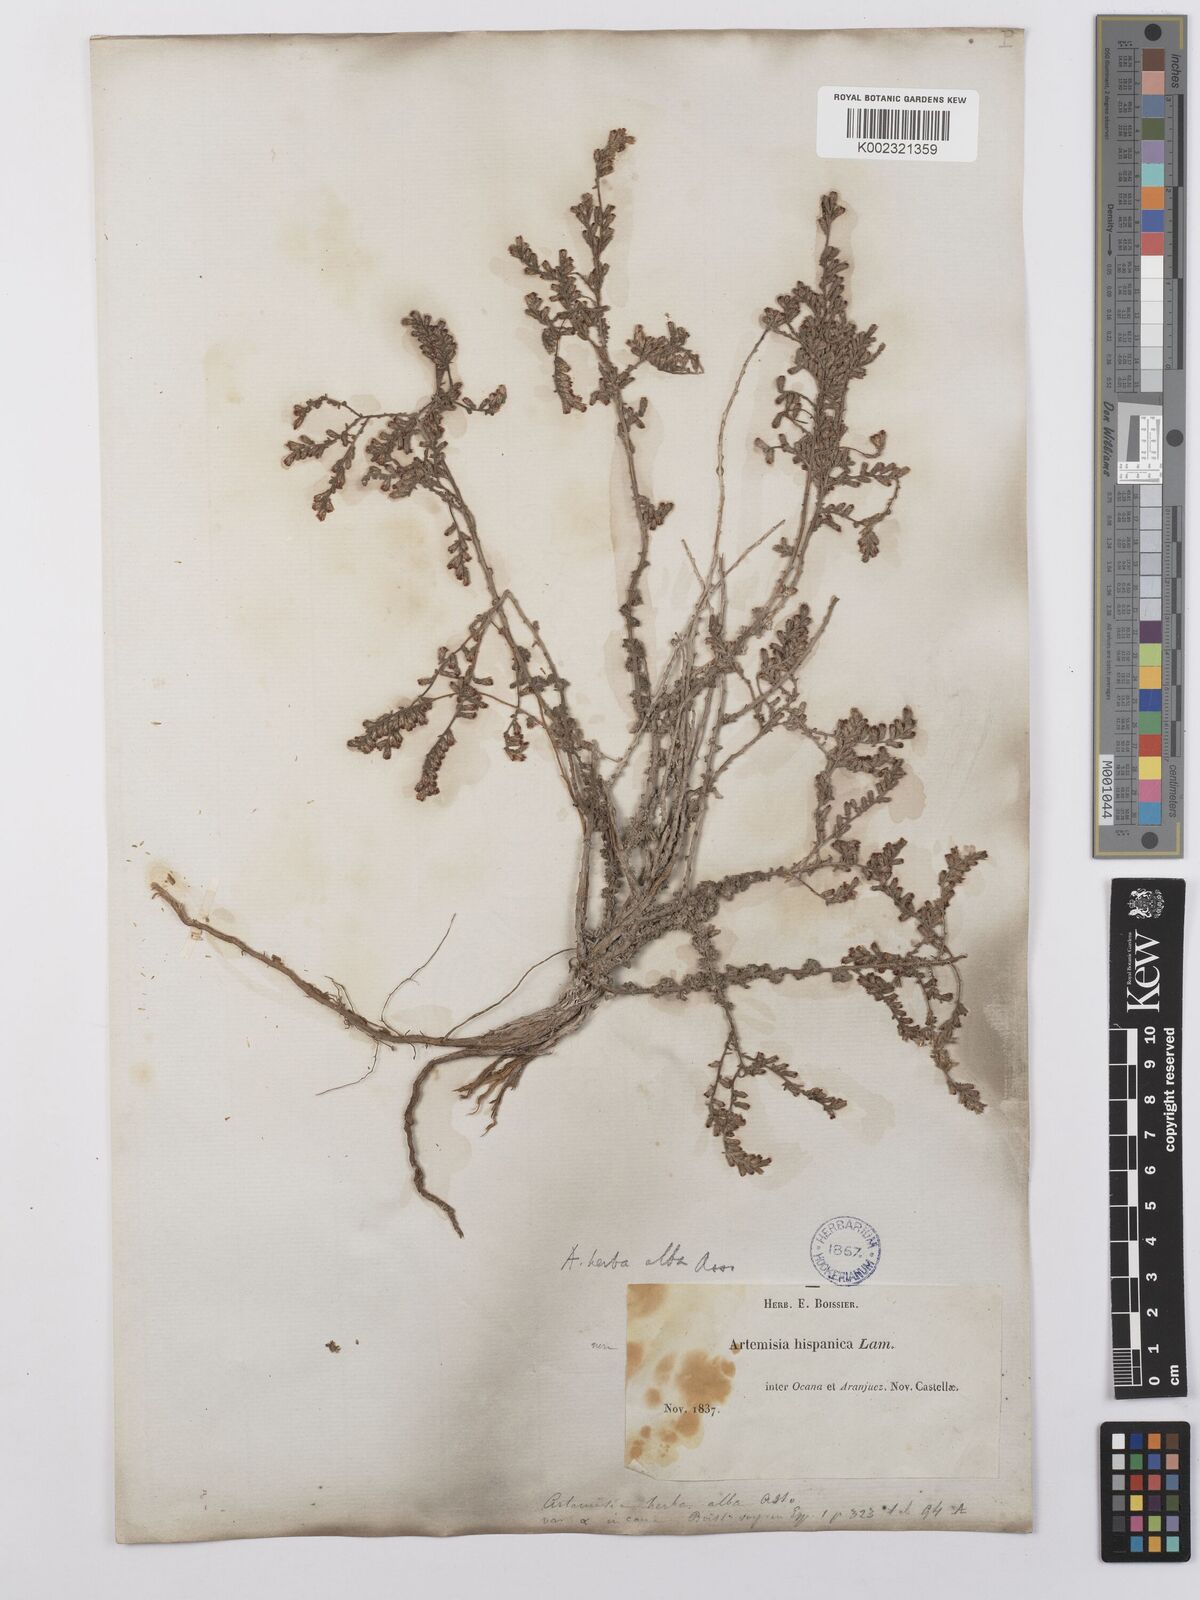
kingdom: Plantae
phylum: Tracheophyta
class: Magnoliopsida
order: Asterales
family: Asteraceae
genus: Artemisia
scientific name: Artemisia herba-alba
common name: White wormwood
